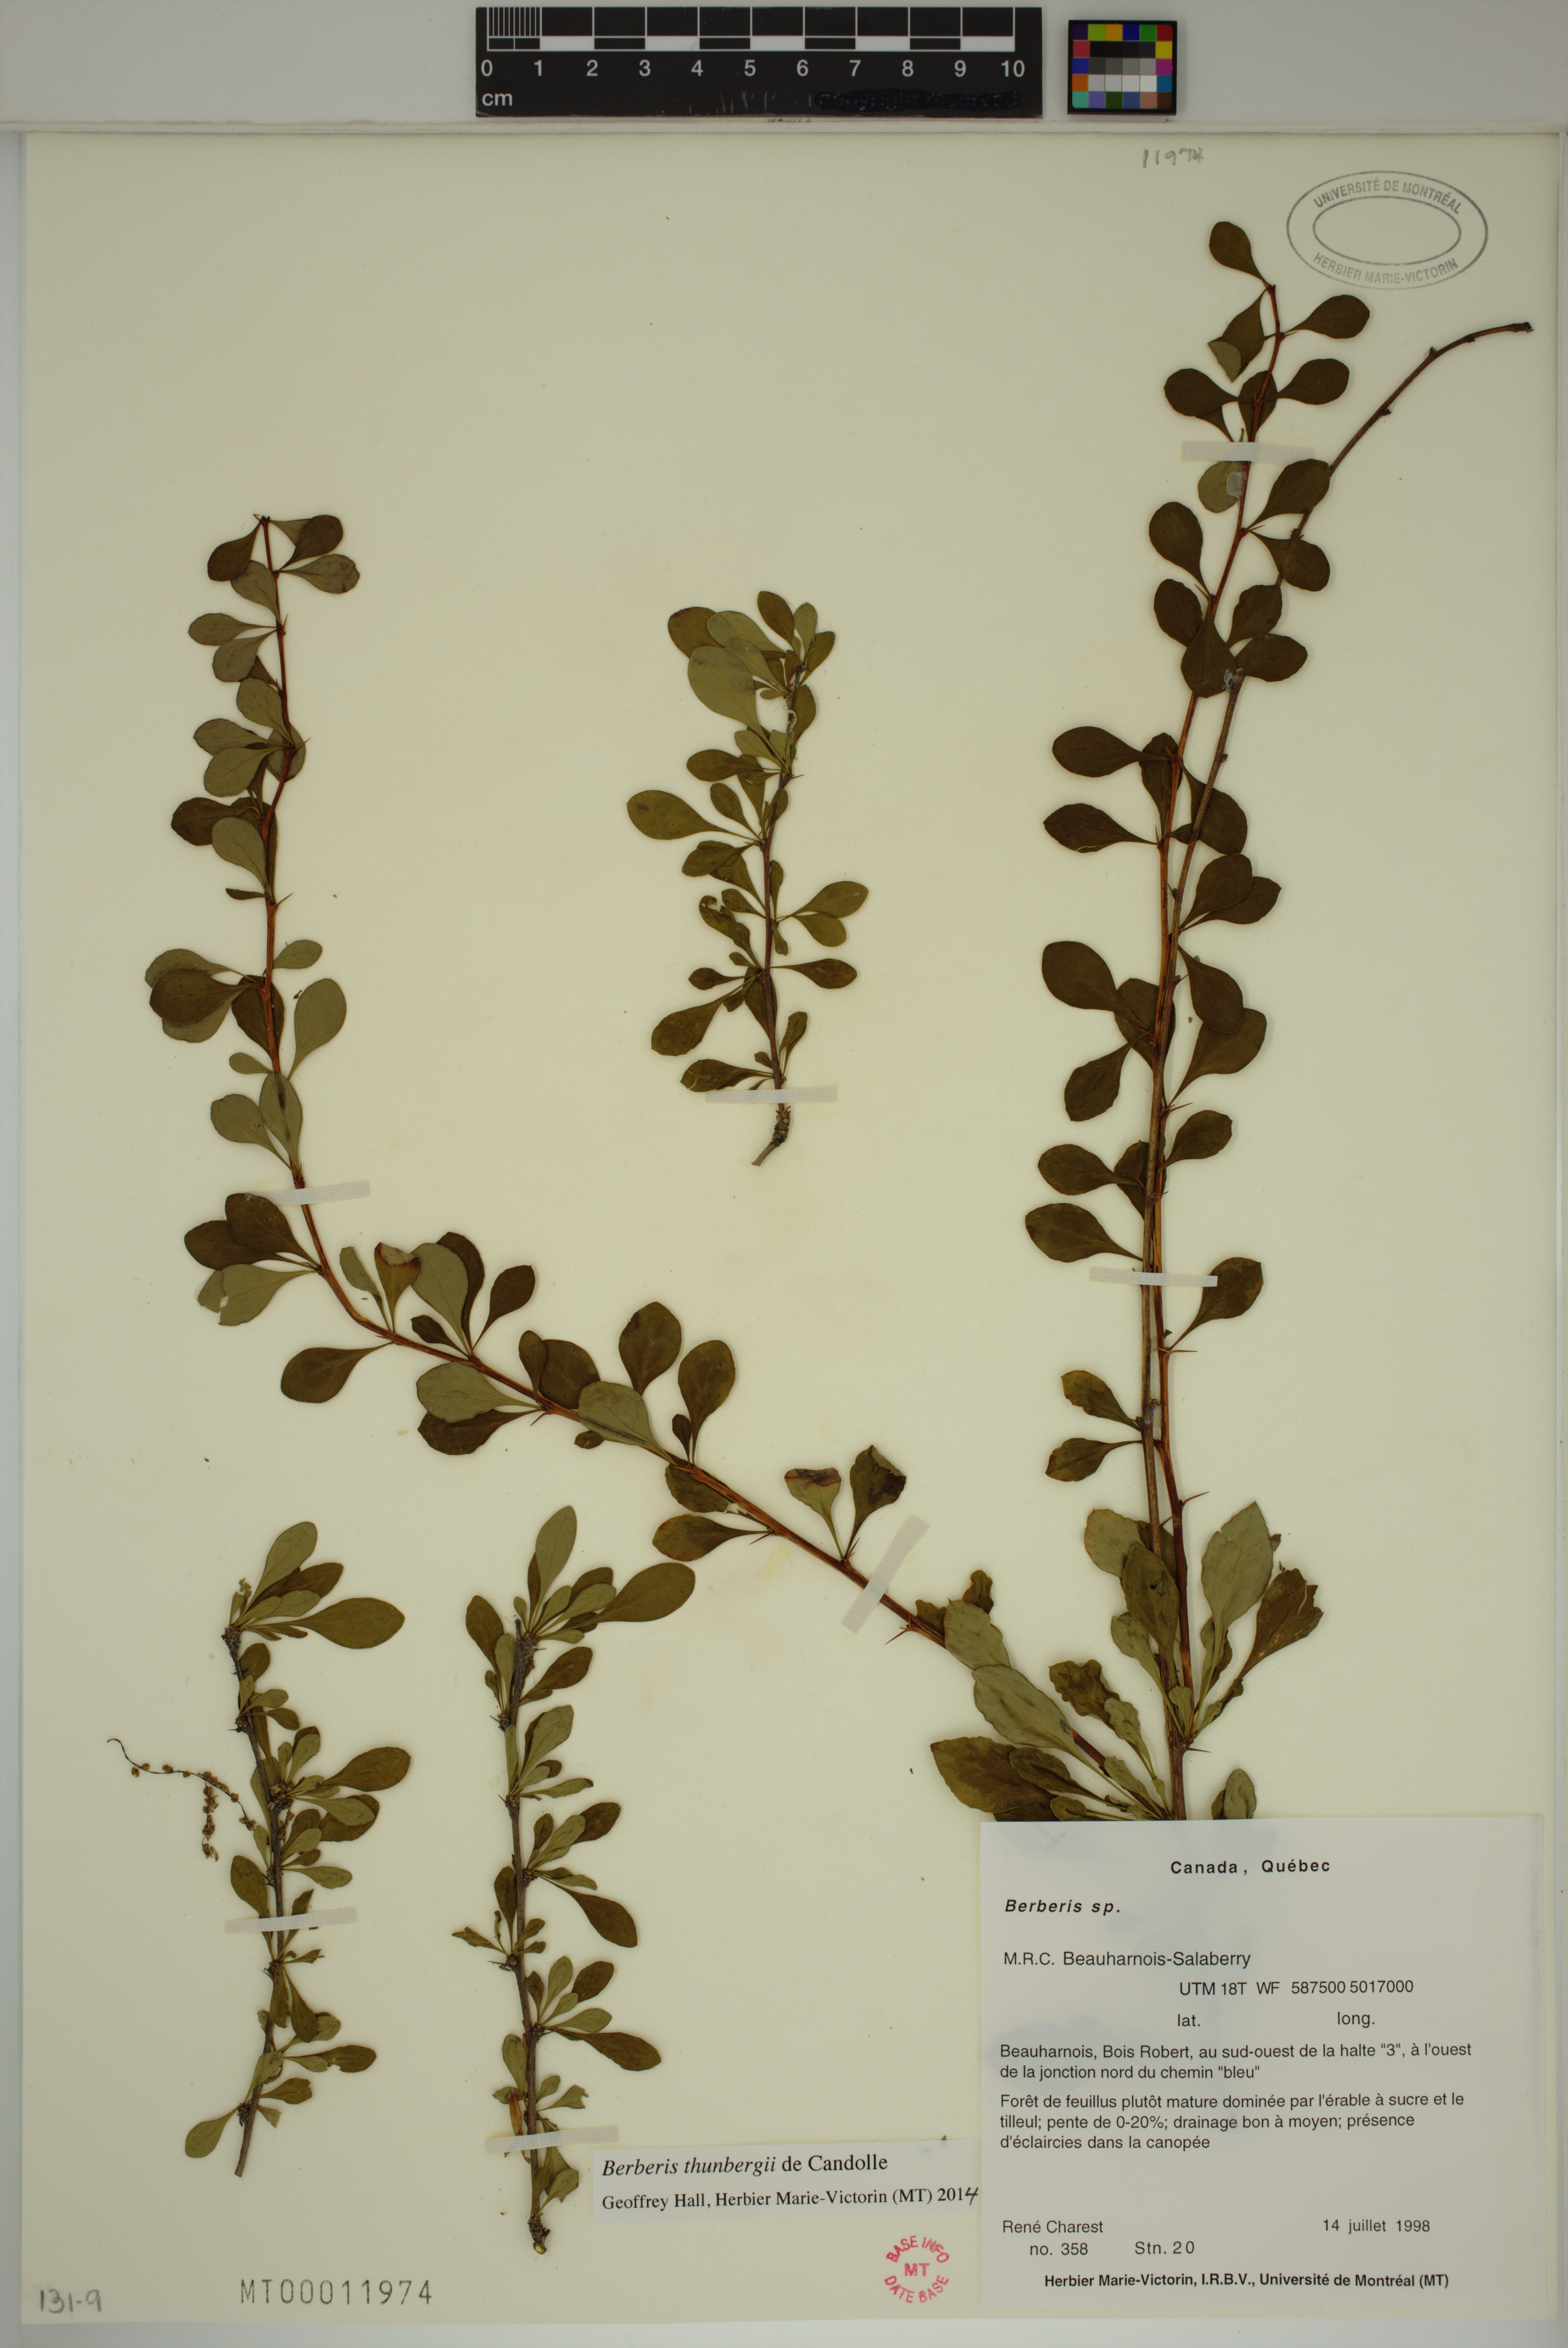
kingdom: Plantae
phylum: Tracheophyta
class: Magnoliopsida
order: Ranunculales
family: Berberidaceae
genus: Berberis
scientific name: Berberis thunbergii
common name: Japanese barberry
